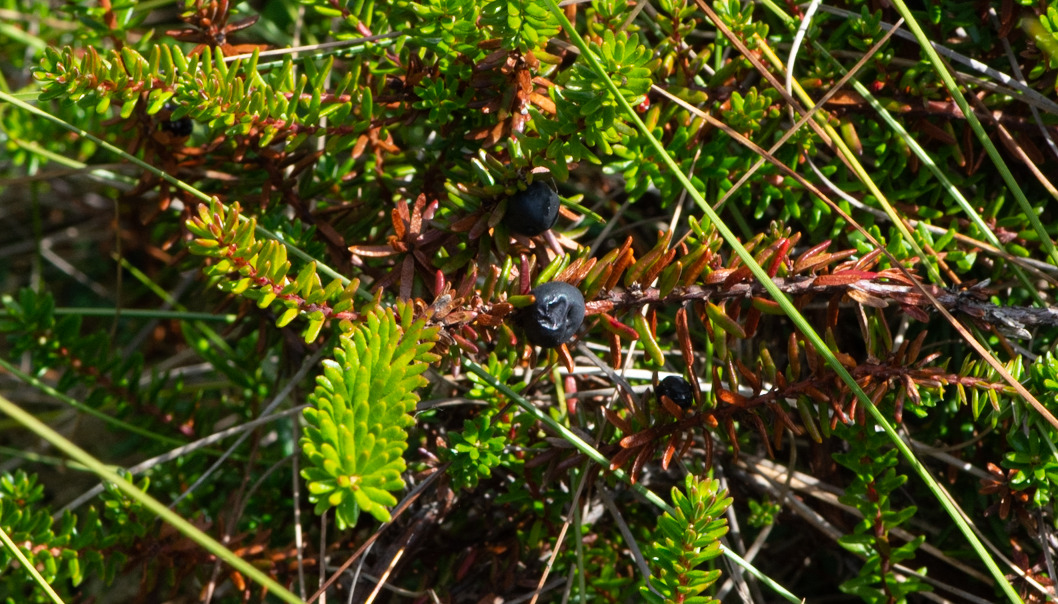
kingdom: Plantae
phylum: Tracheophyta
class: Magnoliopsida
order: Ericales
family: Ericaceae
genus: Empetrum
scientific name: Empetrum nigrum
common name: Revling
